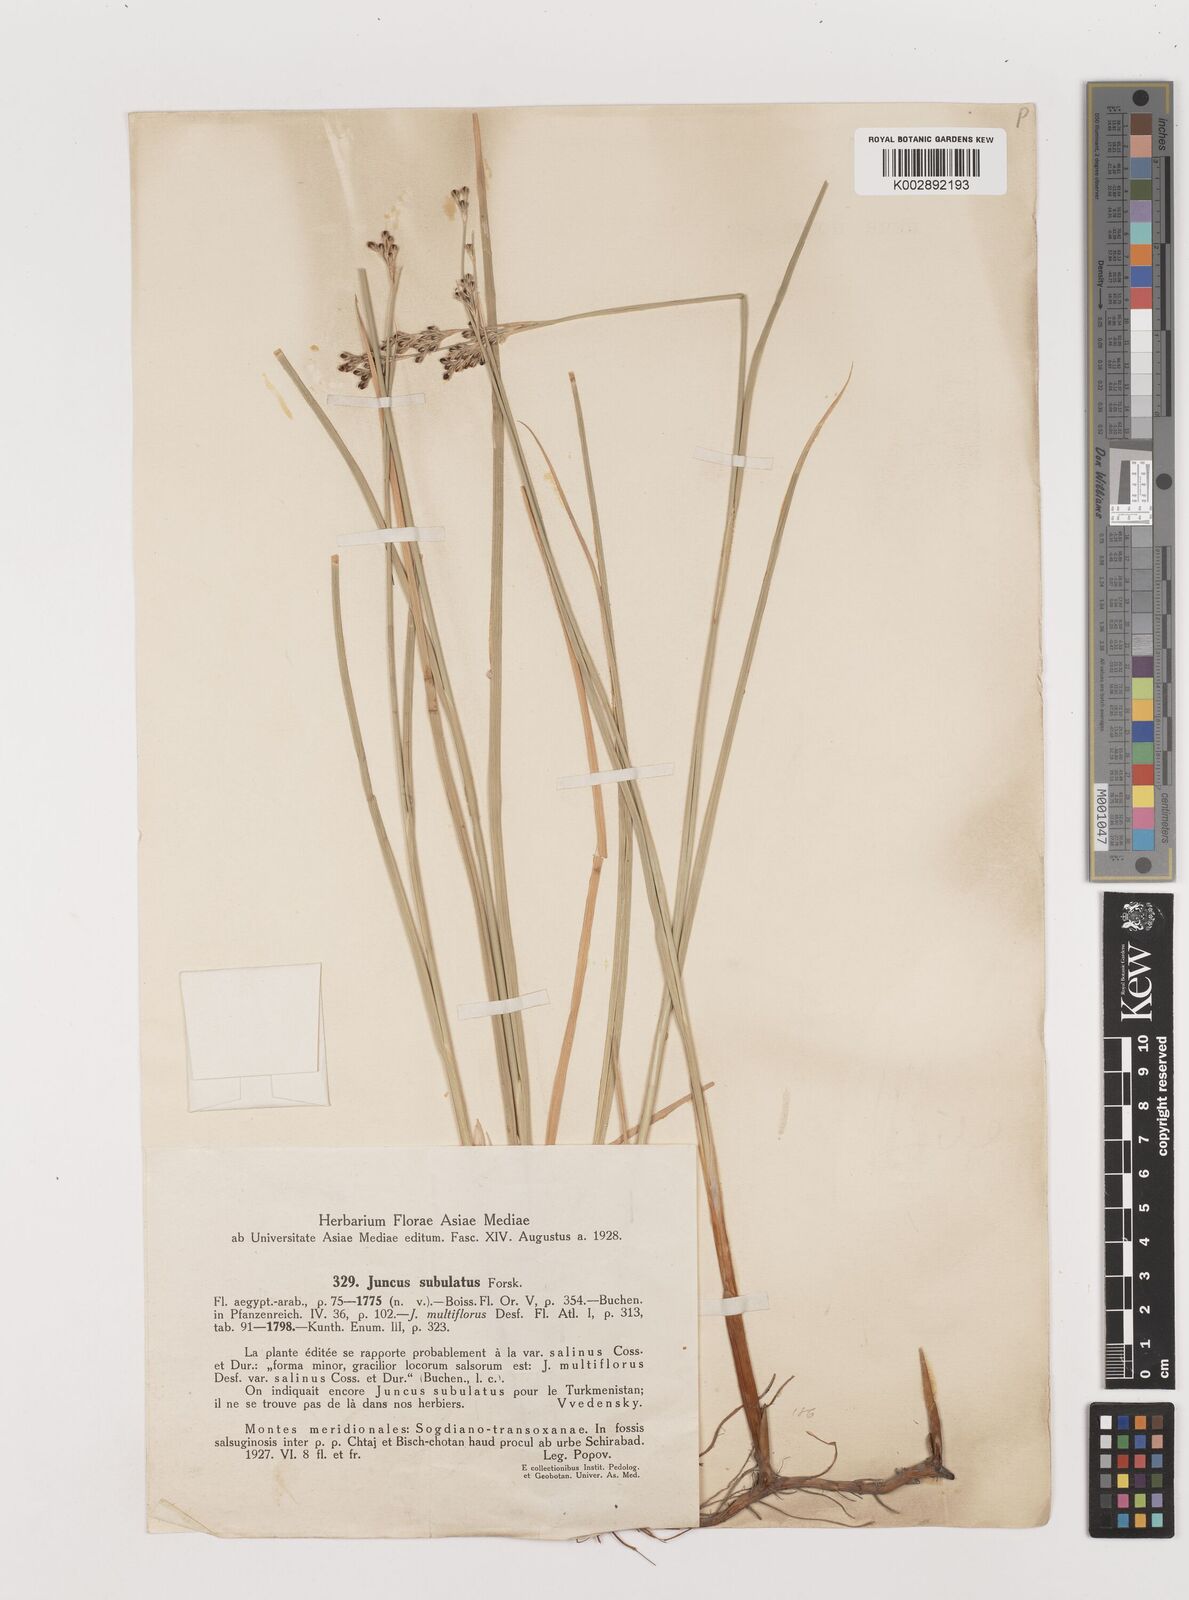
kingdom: Plantae
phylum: Tracheophyta
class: Liliopsida
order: Poales
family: Juncaceae
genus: Juncus
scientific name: Juncus subulatus
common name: Somerset rush
